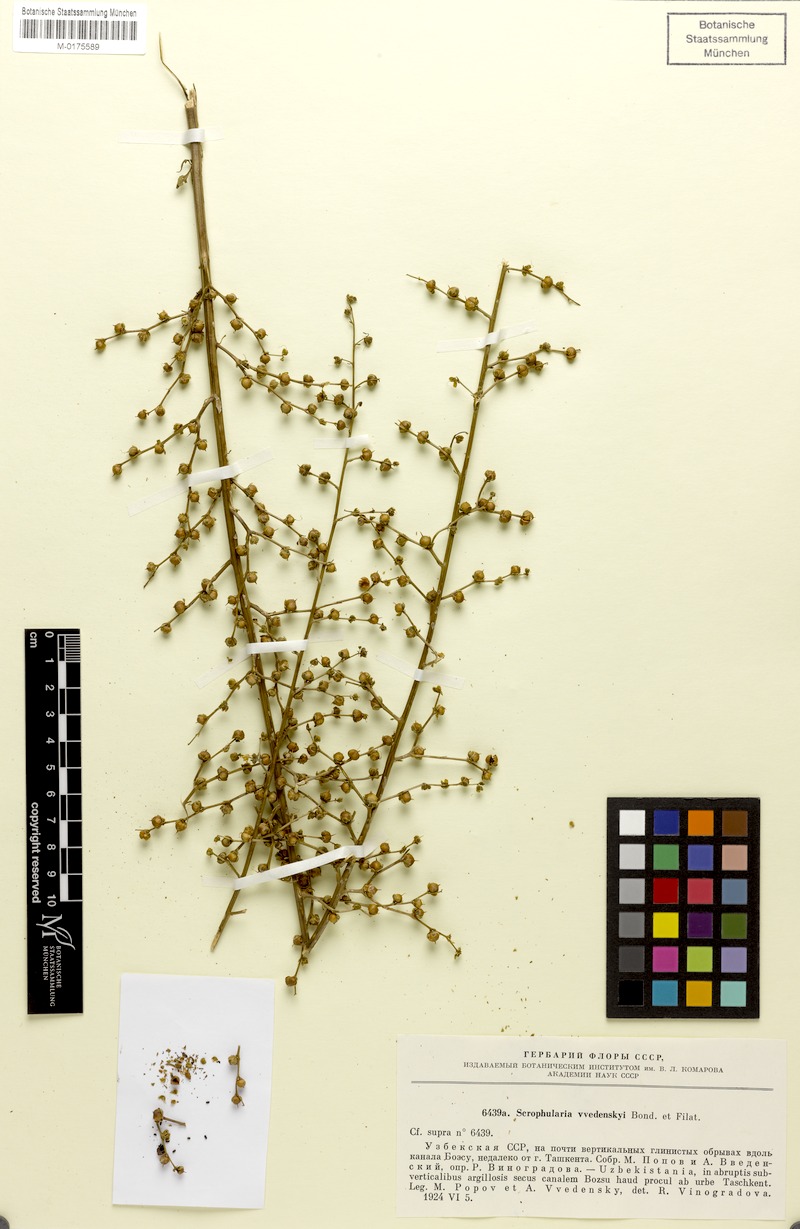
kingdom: Plantae
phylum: Tracheophyta
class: Magnoliopsida
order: Lamiales
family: Scrophulariaceae
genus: Scrophularia
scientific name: Scrophularia vvedenskyi
